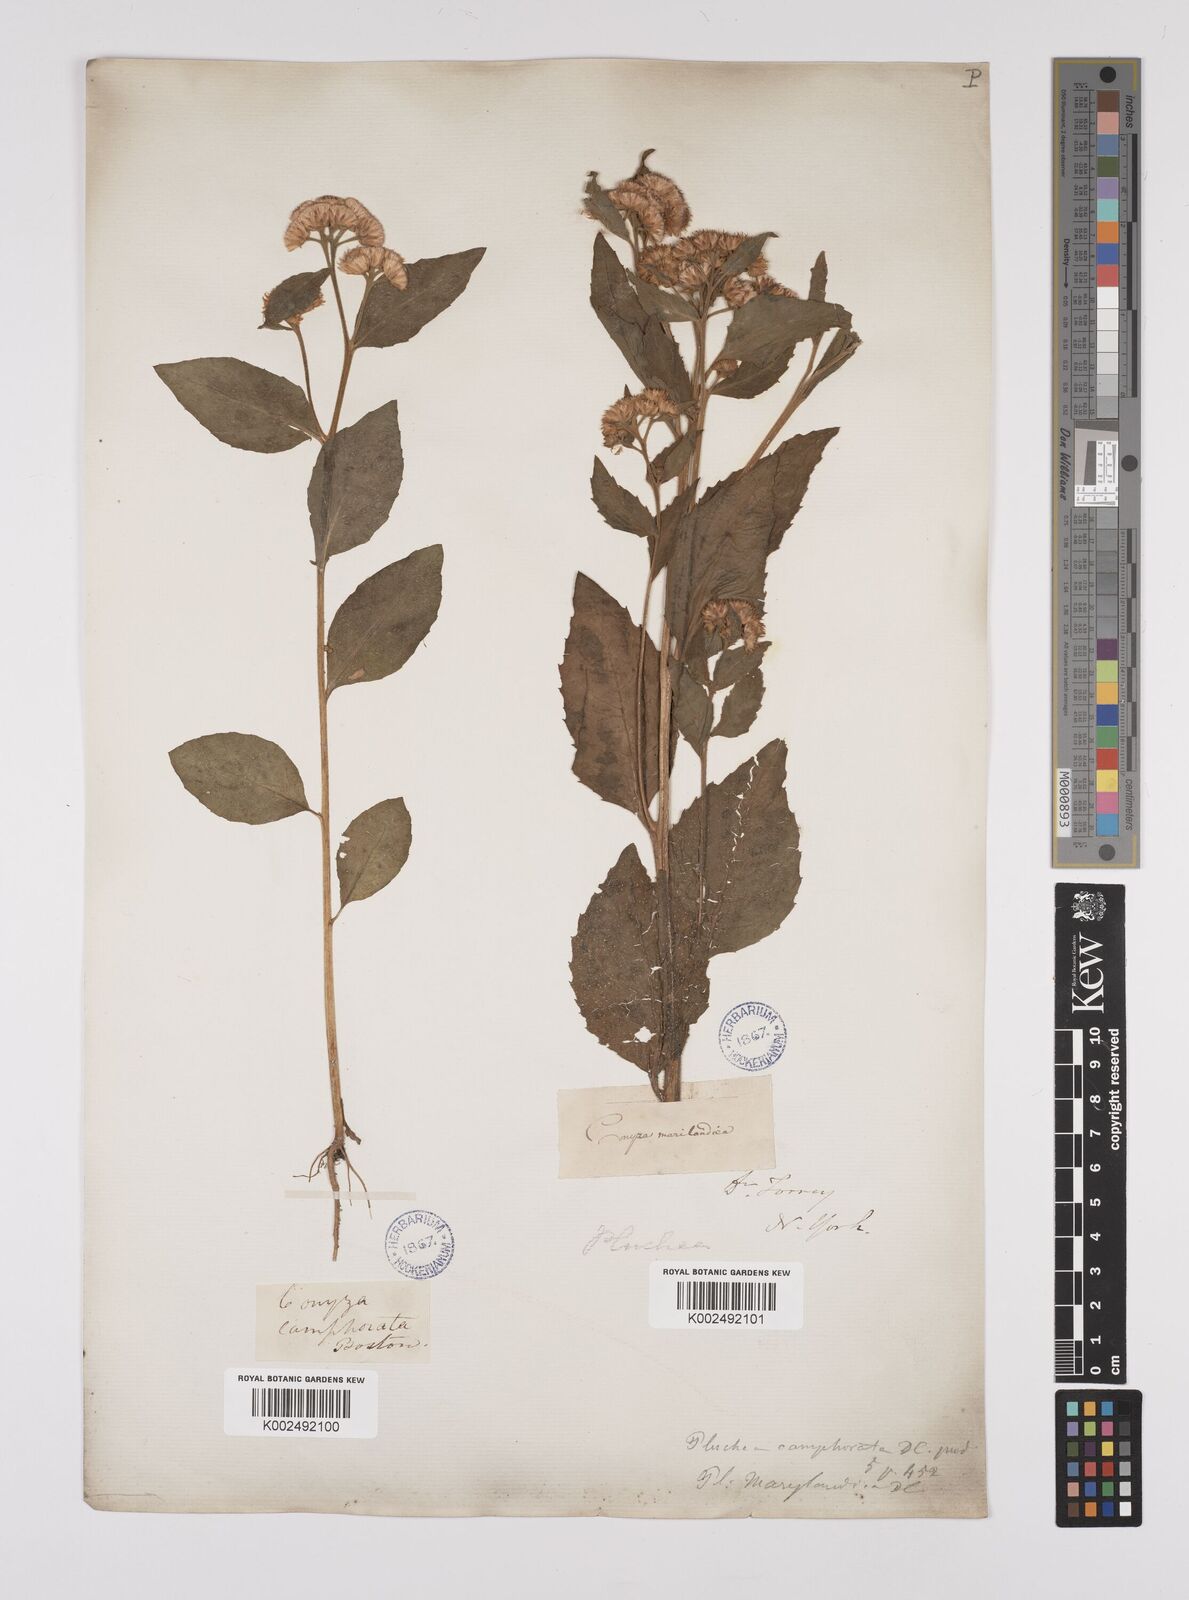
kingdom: Plantae
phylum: Tracheophyta
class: Magnoliopsida
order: Asterales
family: Asteraceae
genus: Pluchea
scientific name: Pluchea camphorata
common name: Camphor pluchea
